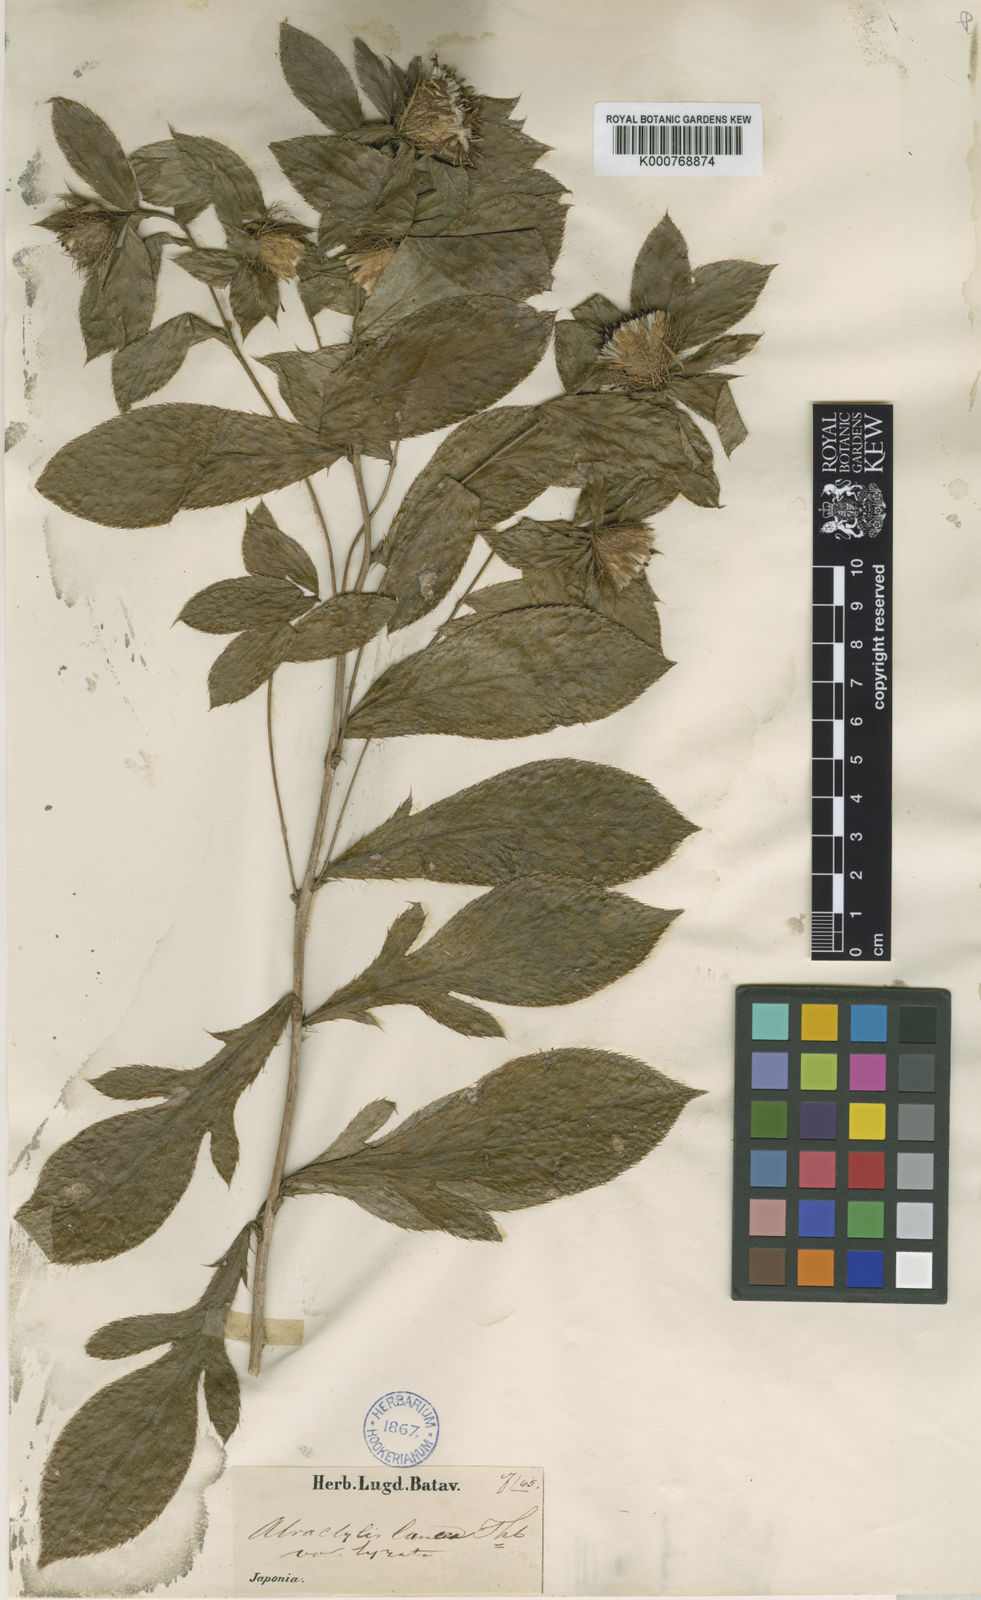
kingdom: Plantae
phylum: Tracheophyta
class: Magnoliopsida
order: Asterales
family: Asteraceae
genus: Atractylodes
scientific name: Atractylodes lancea
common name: Southern tsangshu
